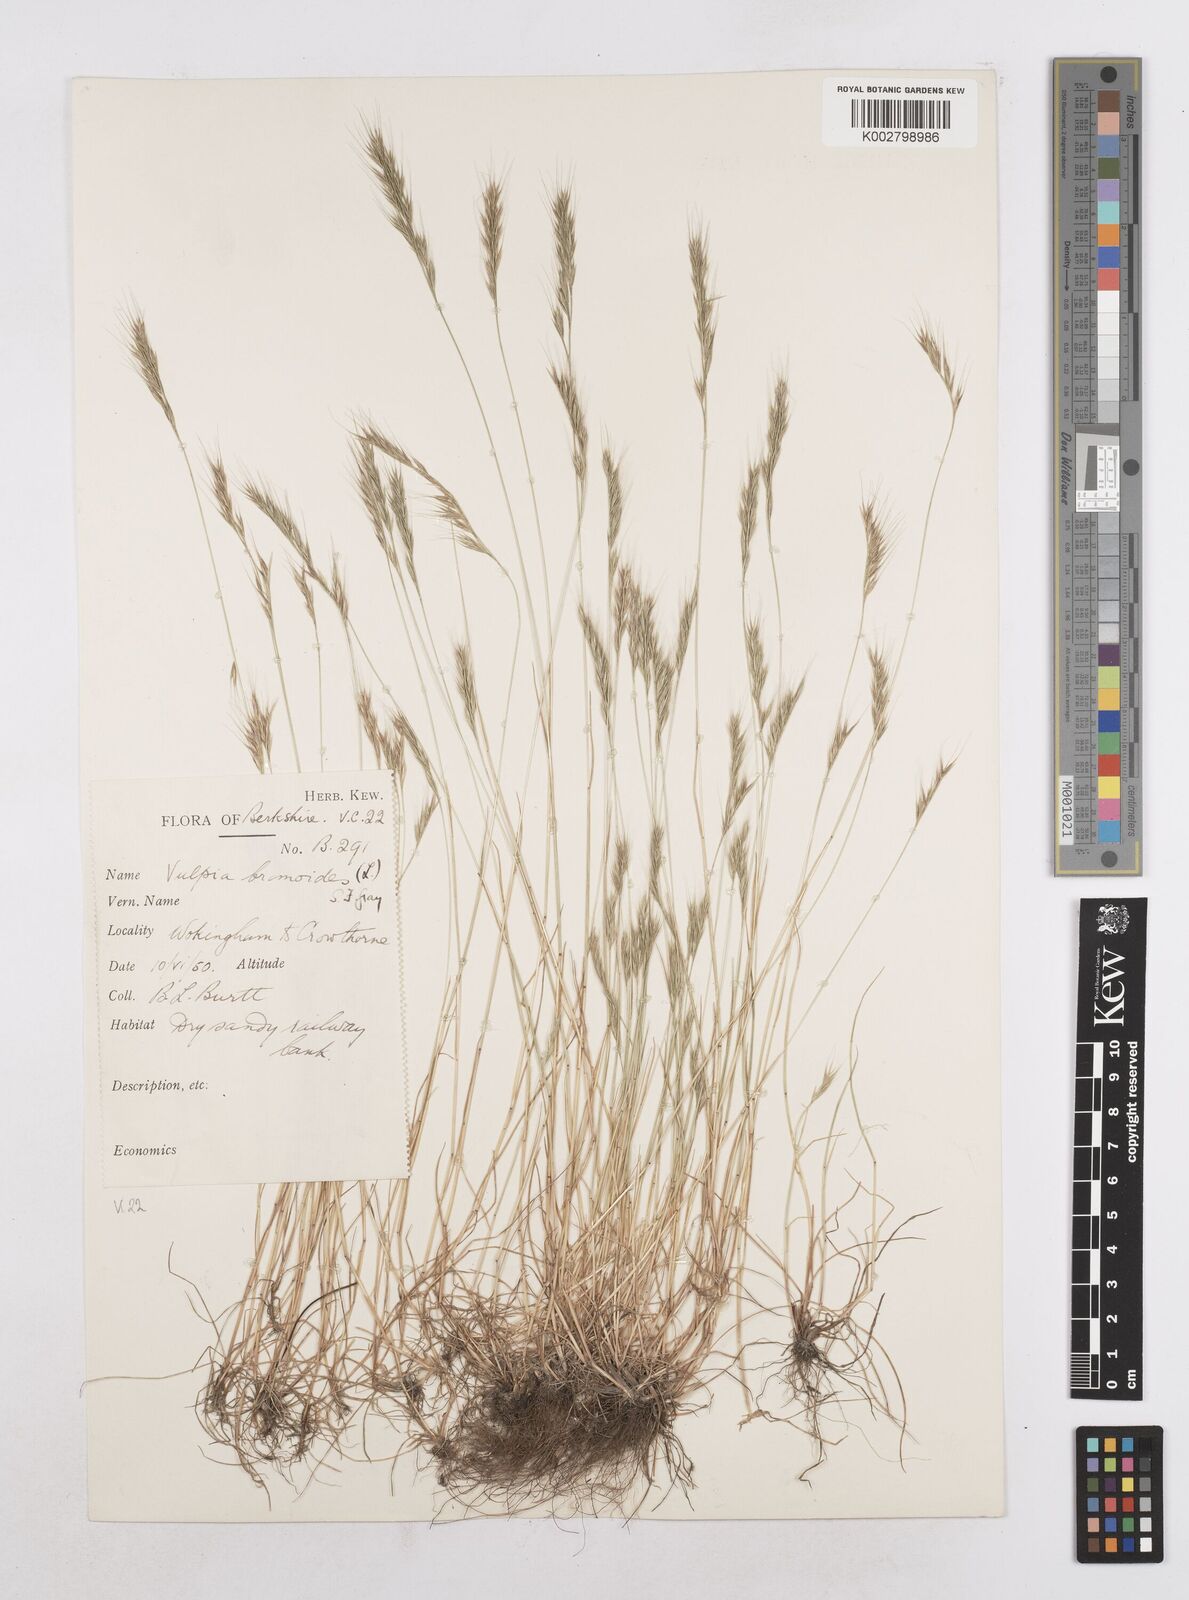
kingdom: Plantae
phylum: Tracheophyta
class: Liliopsida
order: Poales
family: Poaceae
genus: Festuca
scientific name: Festuca bromoides
